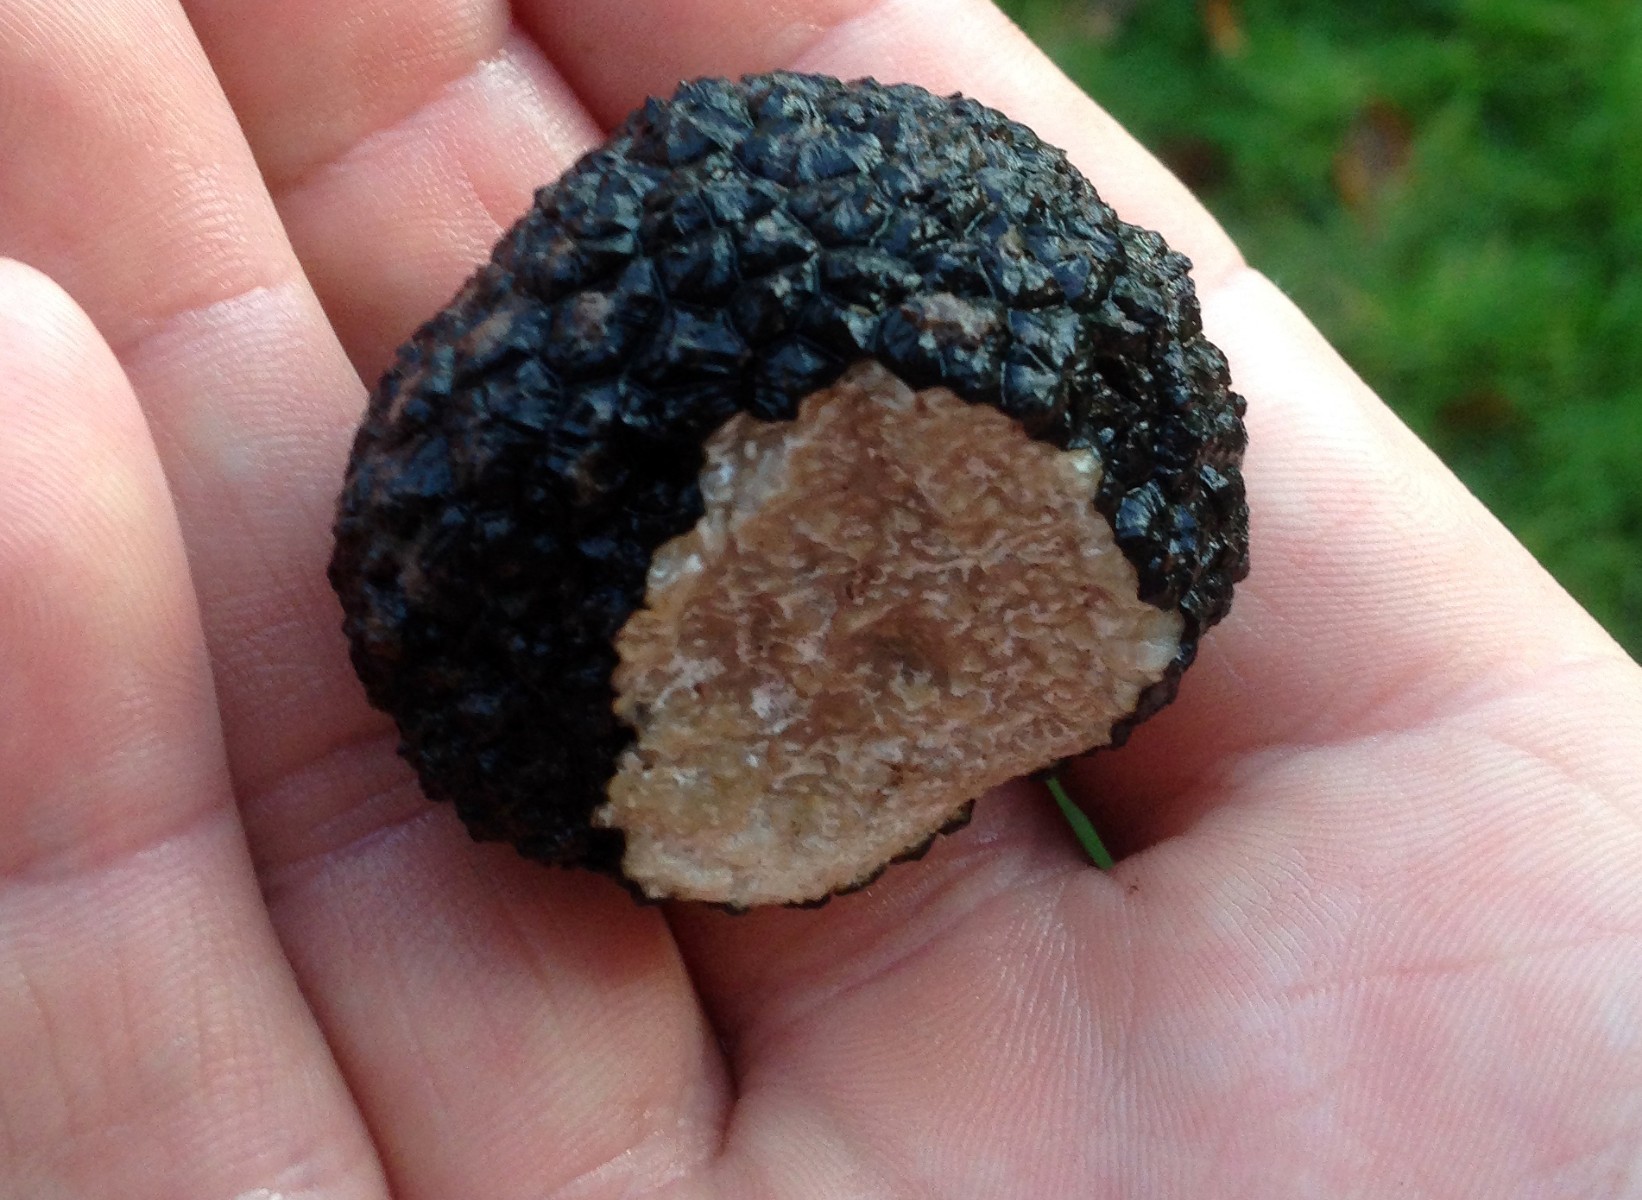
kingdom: Fungi
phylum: Ascomycota
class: Pezizomycetes
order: Pezizales
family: Tuberaceae
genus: Tuber
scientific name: Tuber aestivum
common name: sommer-trøffel
